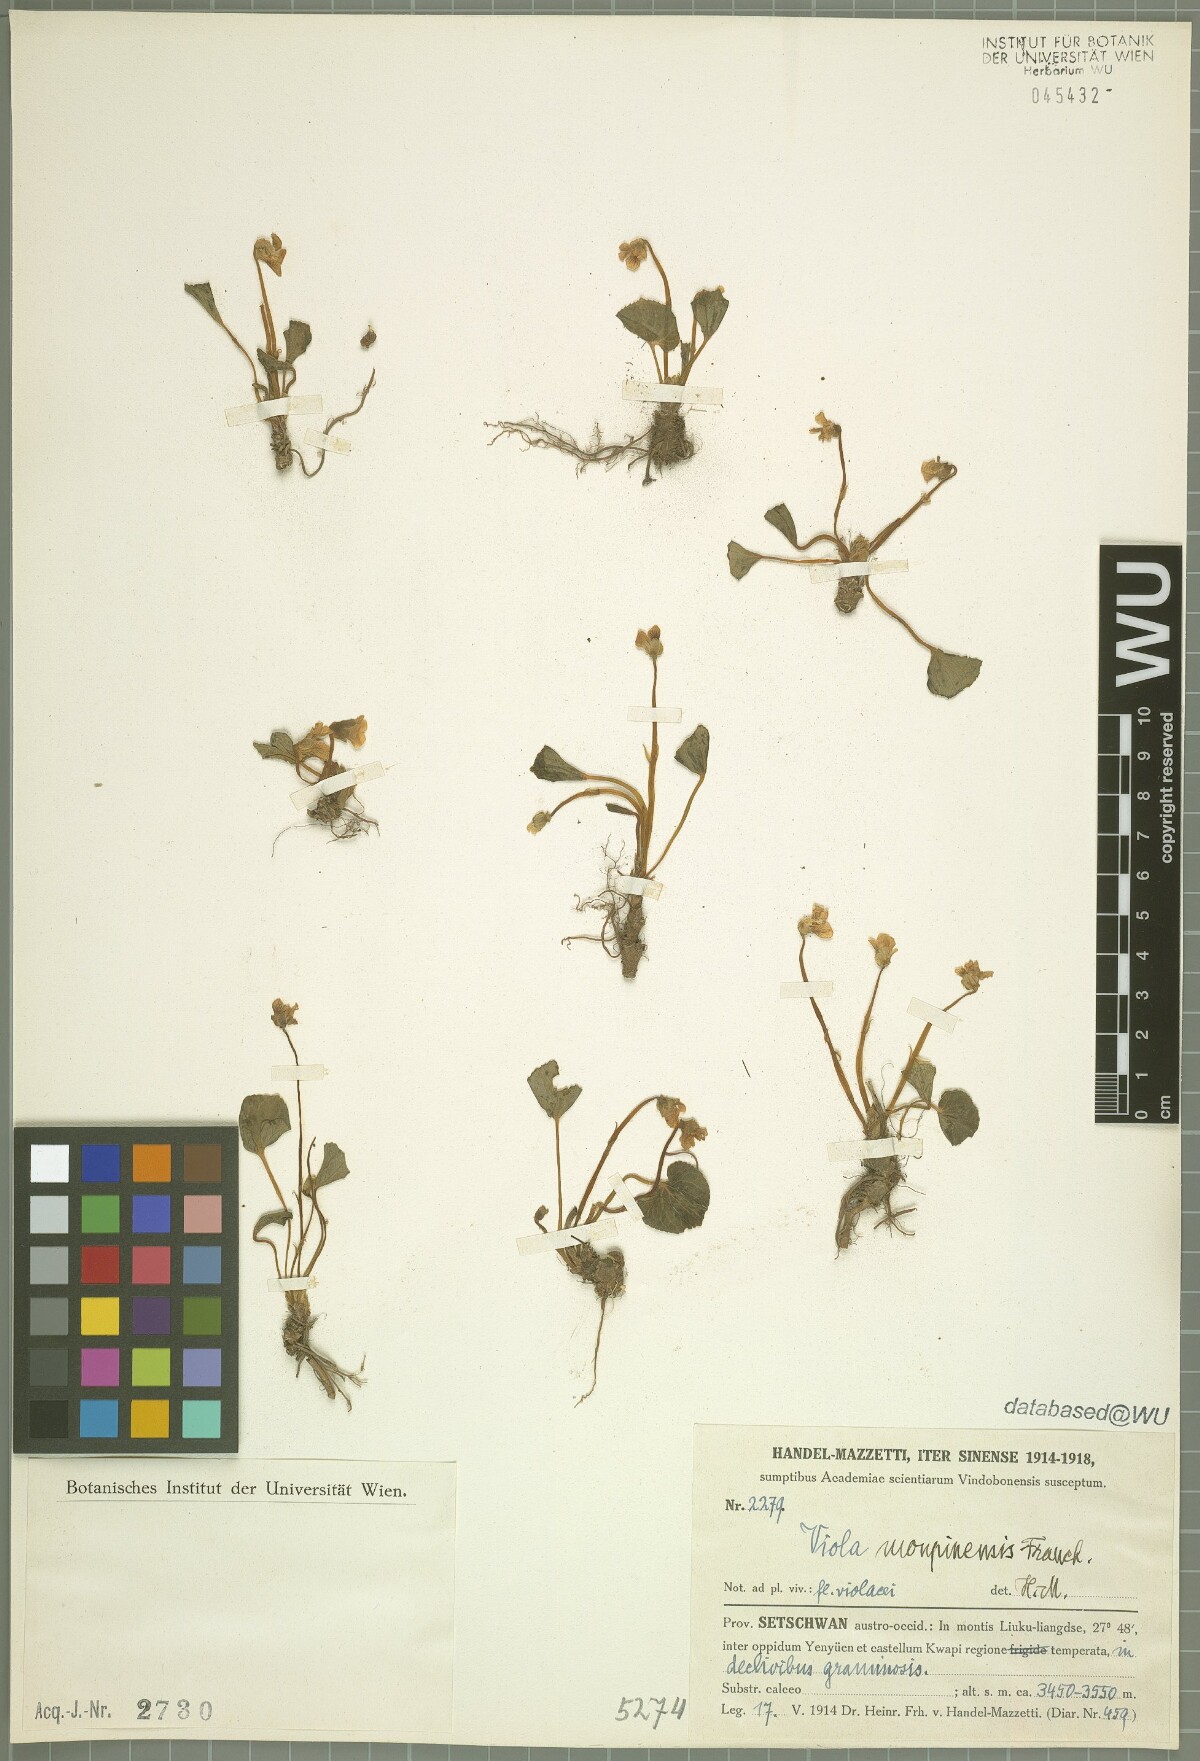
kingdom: Plantae
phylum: Tracheophyta
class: Magnoliopsida
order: Malpighiales
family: Violaceae
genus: Viola
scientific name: Viola moupinensis
